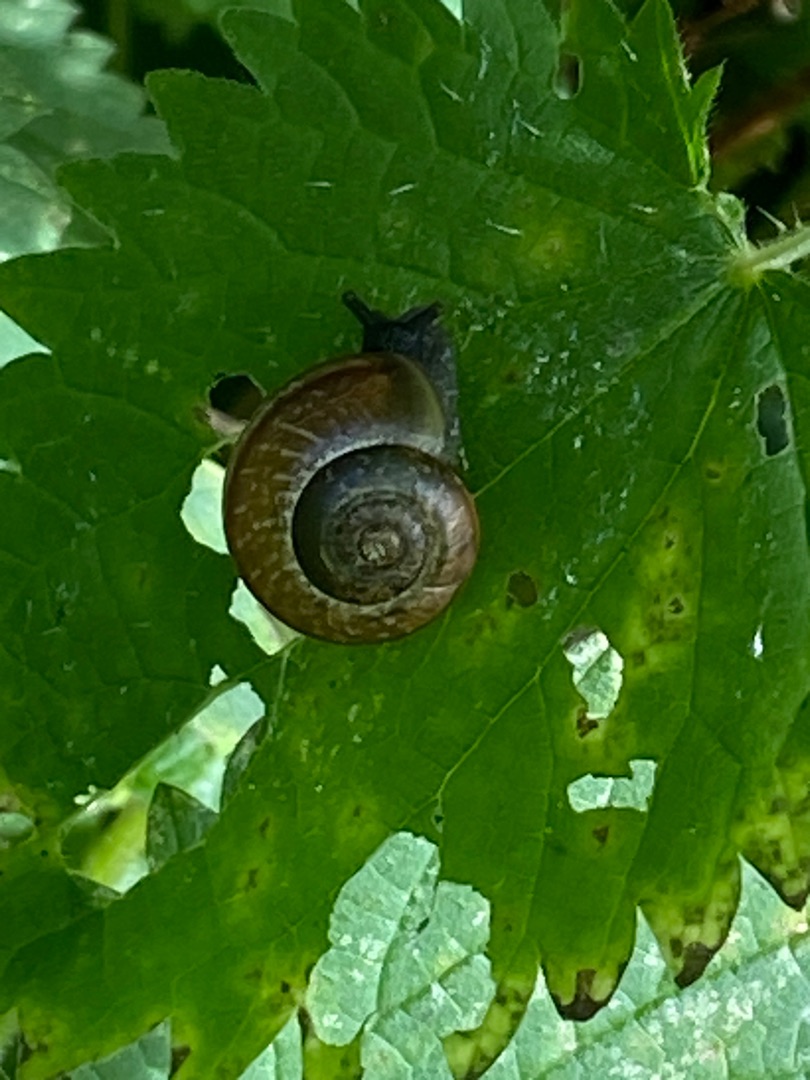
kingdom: Animalia
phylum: Mollusca
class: Gastropoda
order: Stylommatophora
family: Helicidae
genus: Arianta
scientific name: Arianta arbustorum
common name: Kratsnegl
